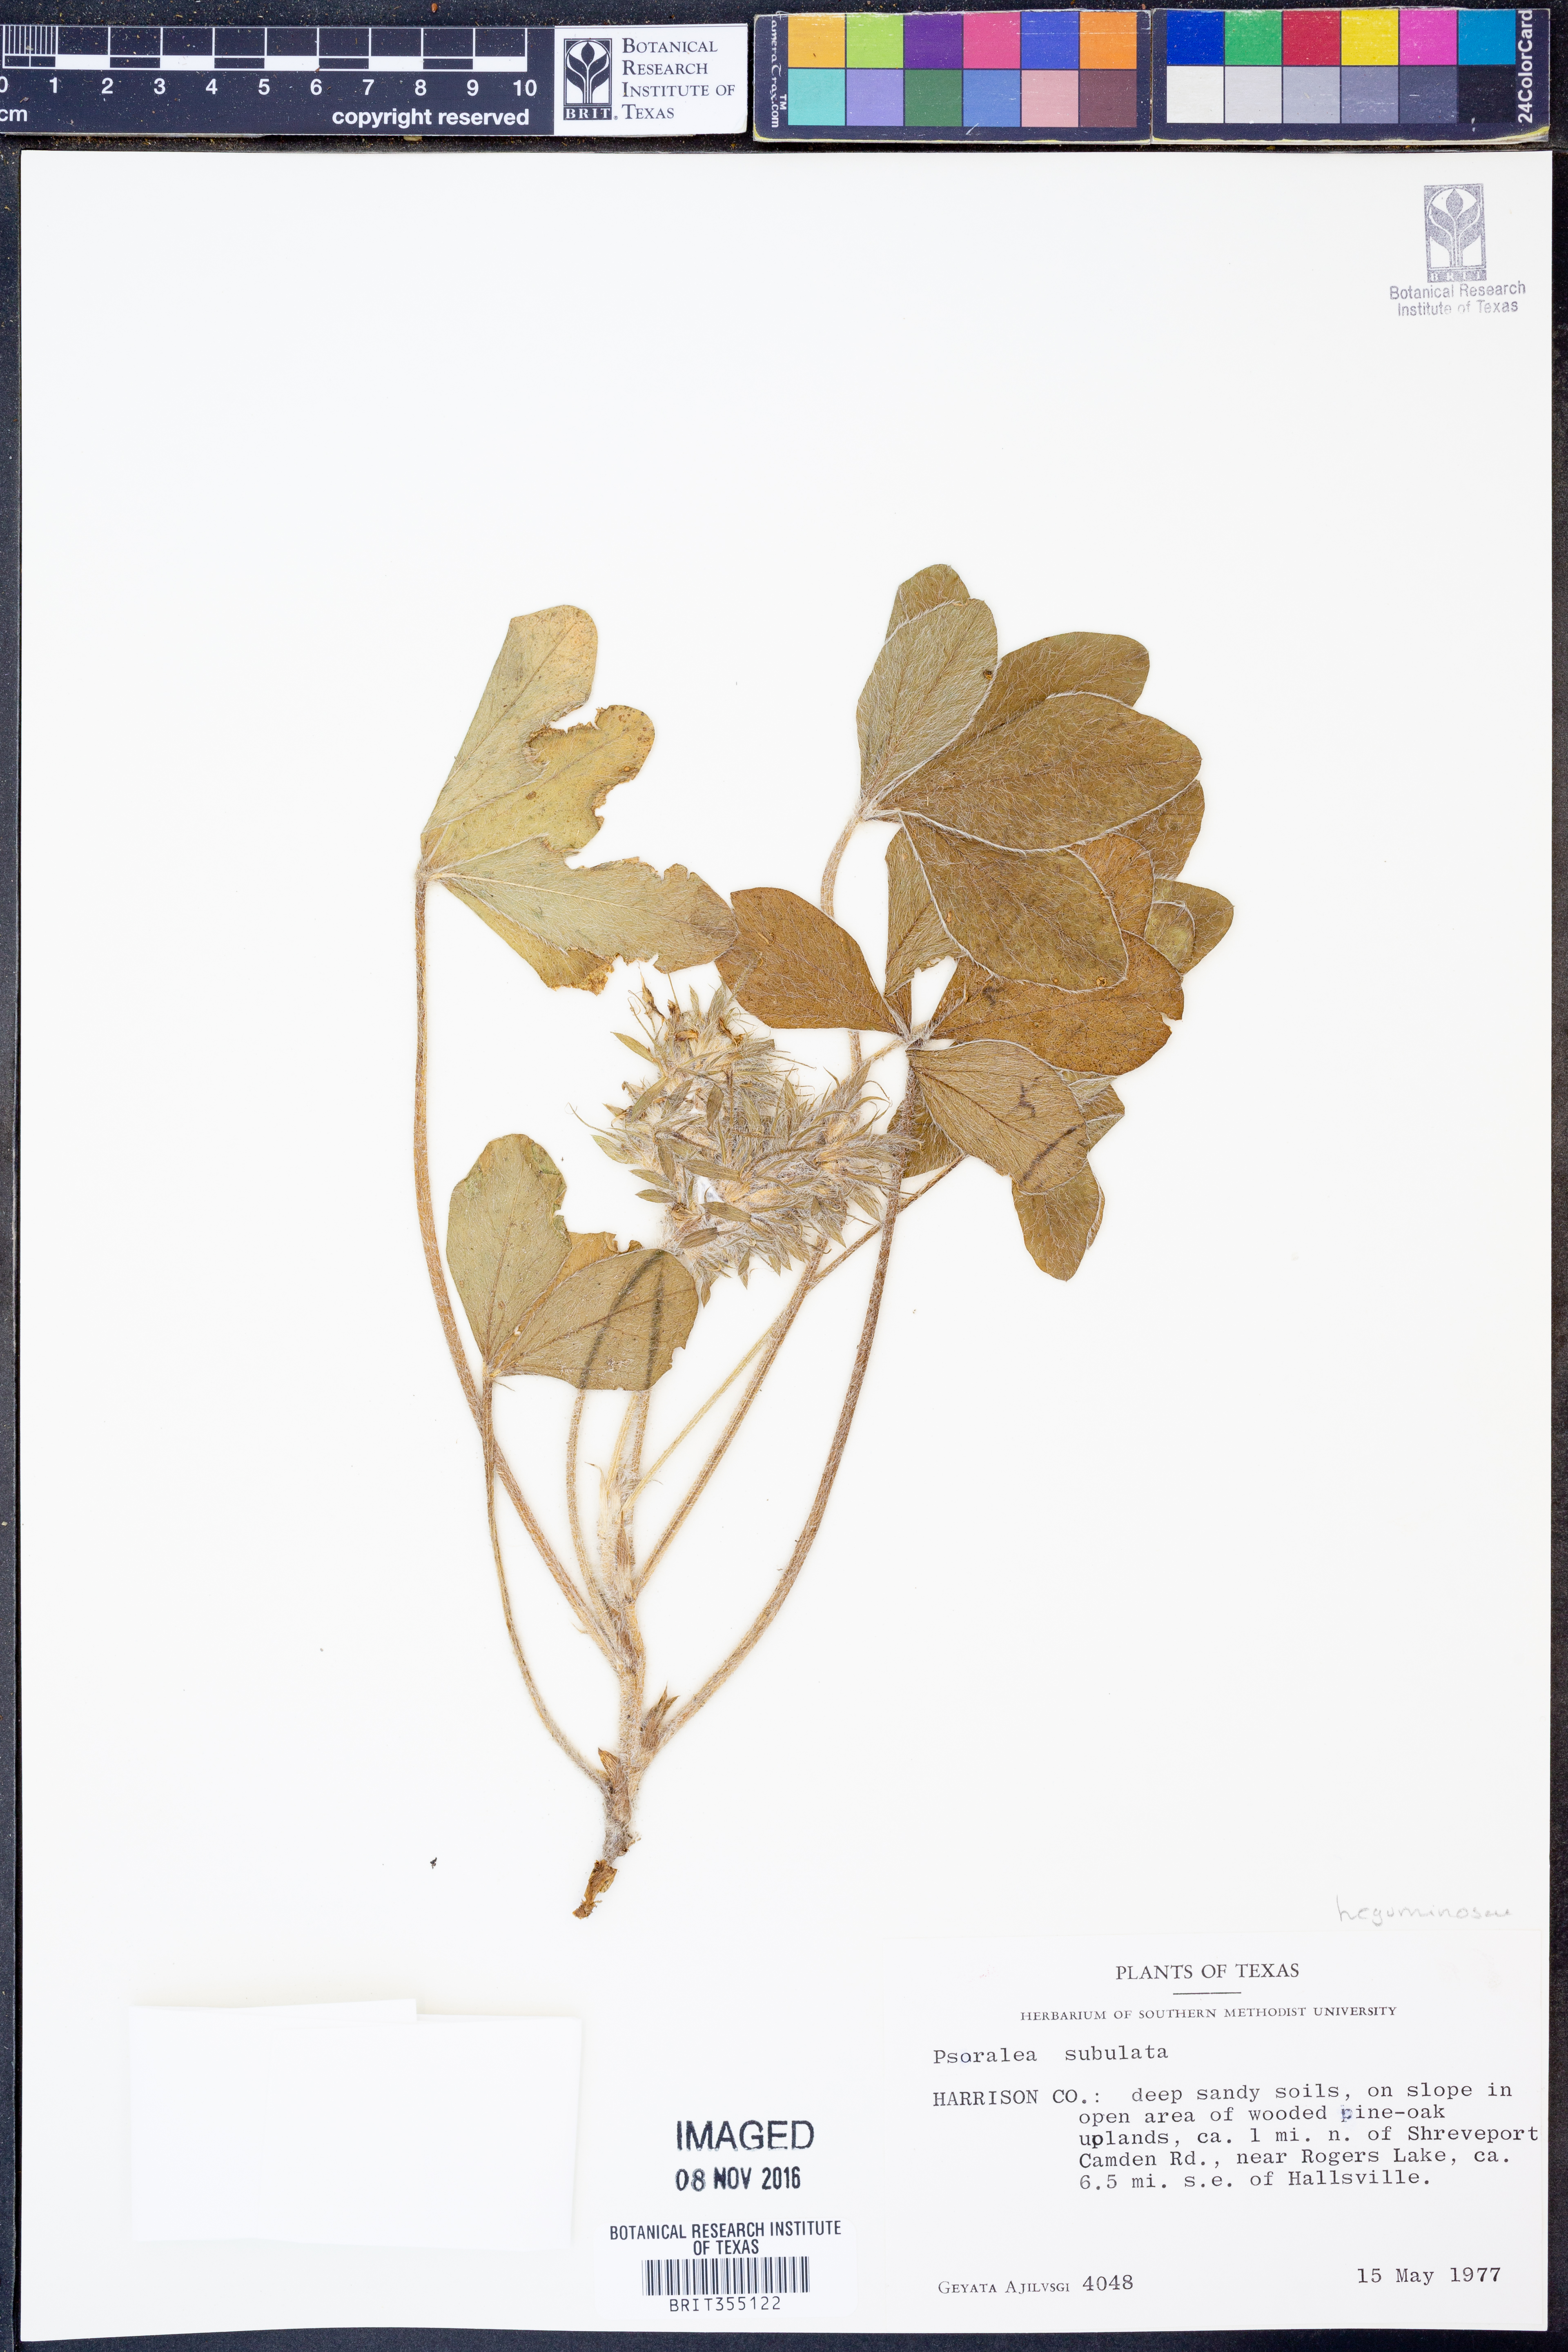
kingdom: Plantae
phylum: Tracheophyta
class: Magnoliopsida
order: Fabales
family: Fabaceae
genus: Pediomelum
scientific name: Pediomelum hypogaeum
